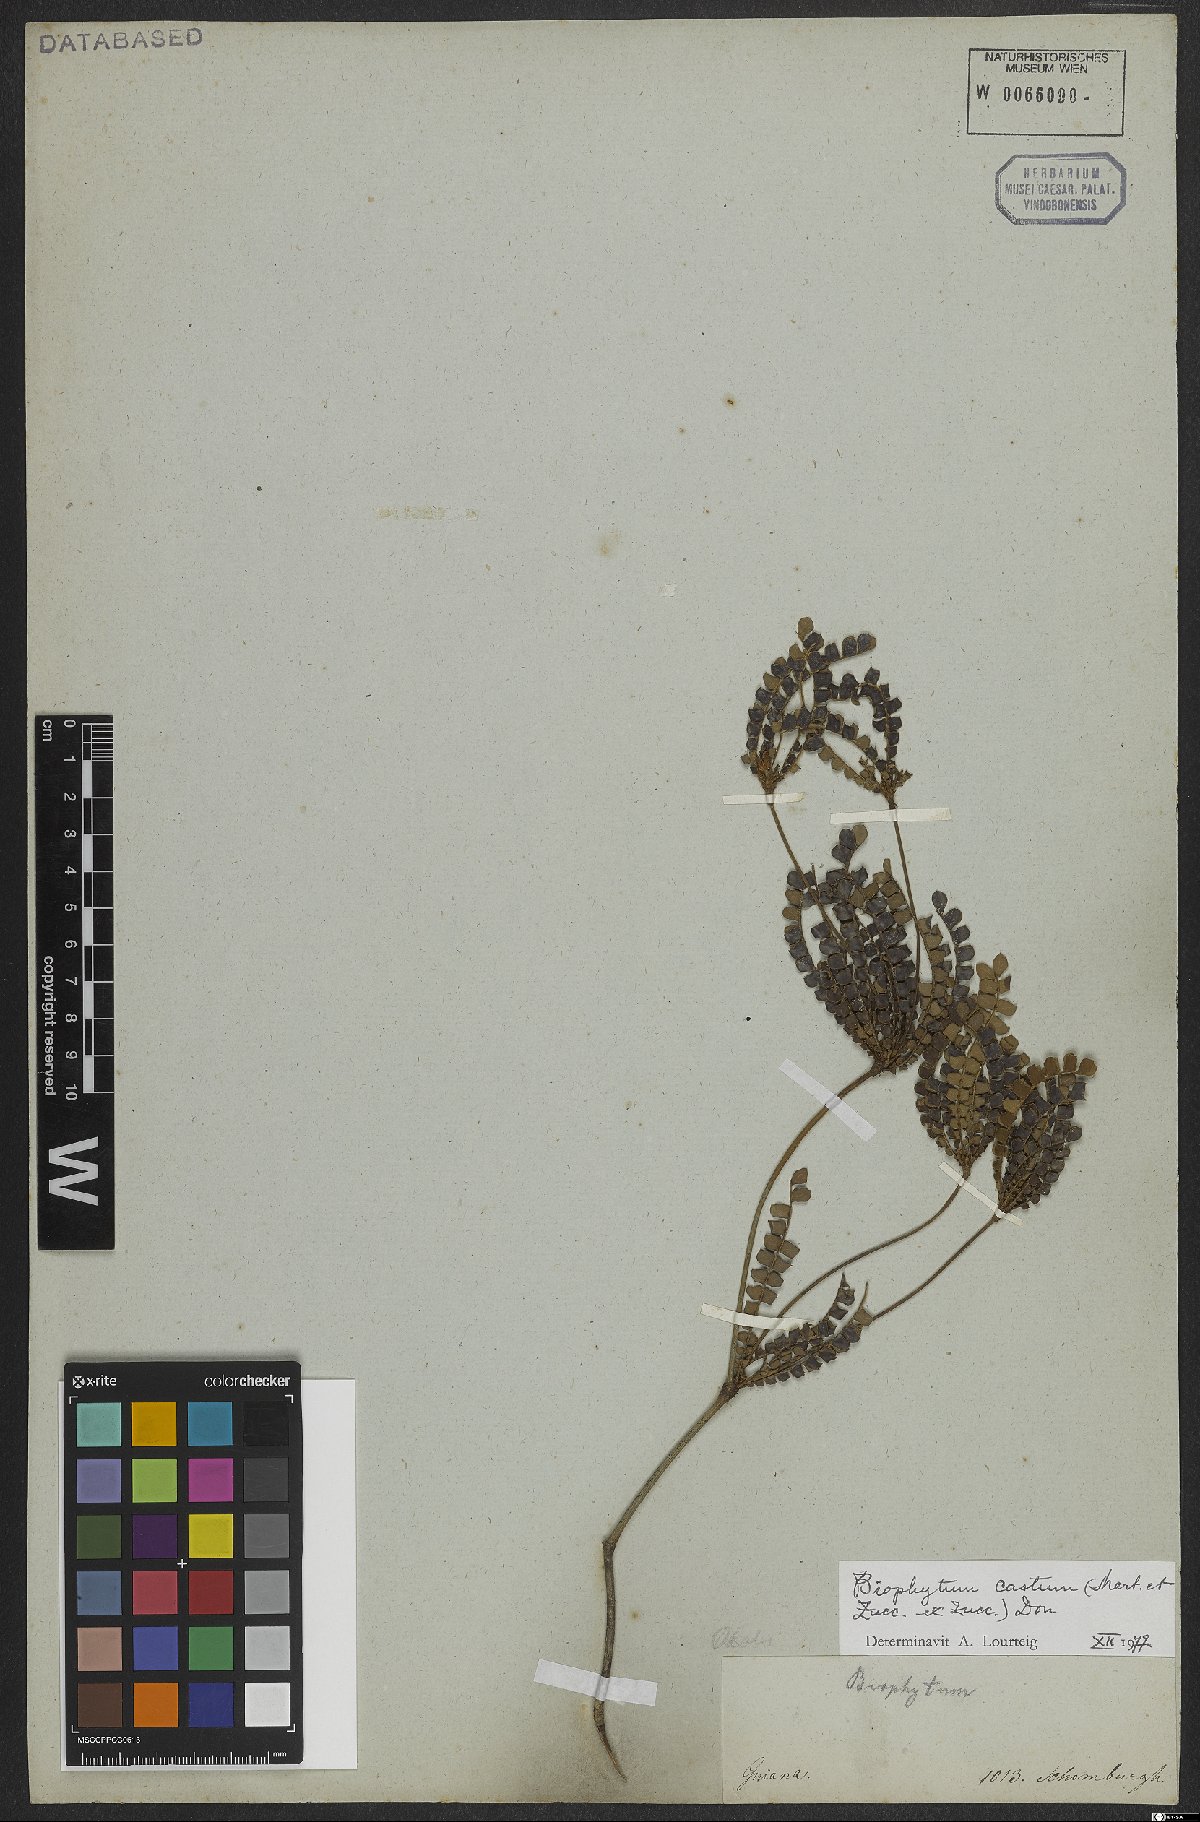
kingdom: Plantae
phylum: Tracheophyta
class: Magnoliopsida
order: Oxalidales
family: Oxalidaceae
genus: Biophytum
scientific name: Biophytum castum
